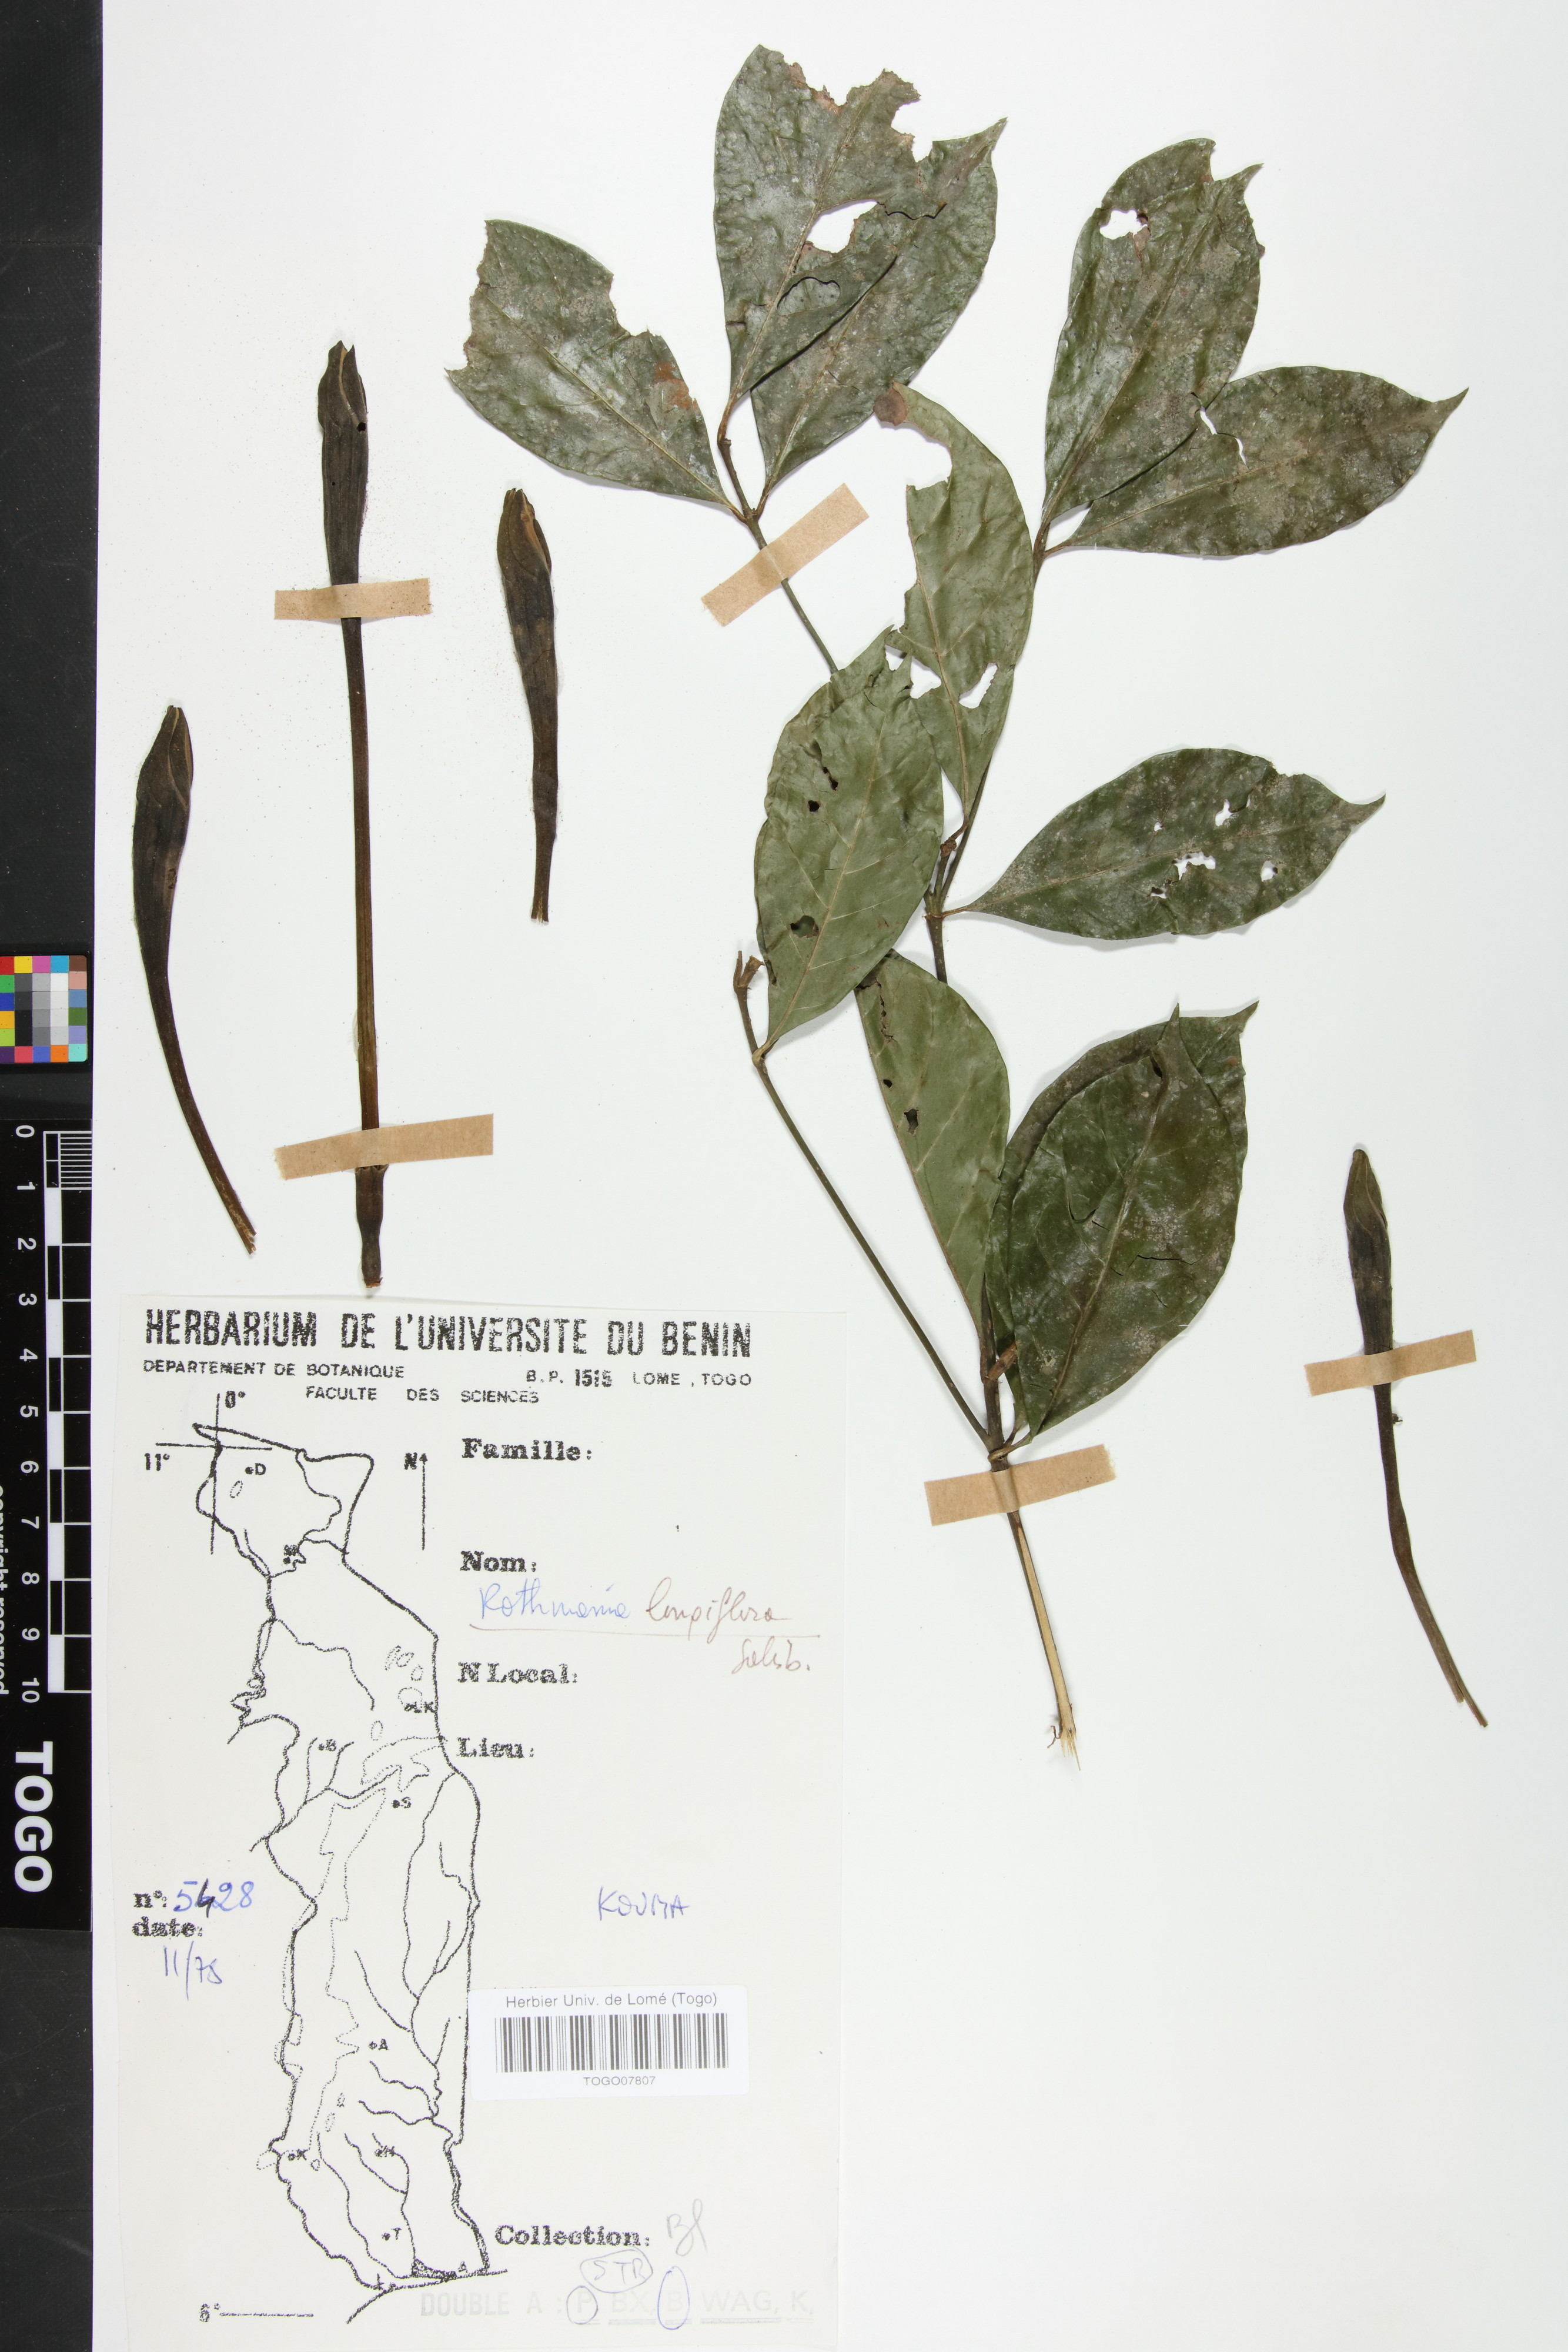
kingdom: Plantae
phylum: Tracheophyta
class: Magnoliopsida
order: Gentianales
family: Rubiaceae
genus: Rothmannia
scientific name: Rothmannia longiflora
